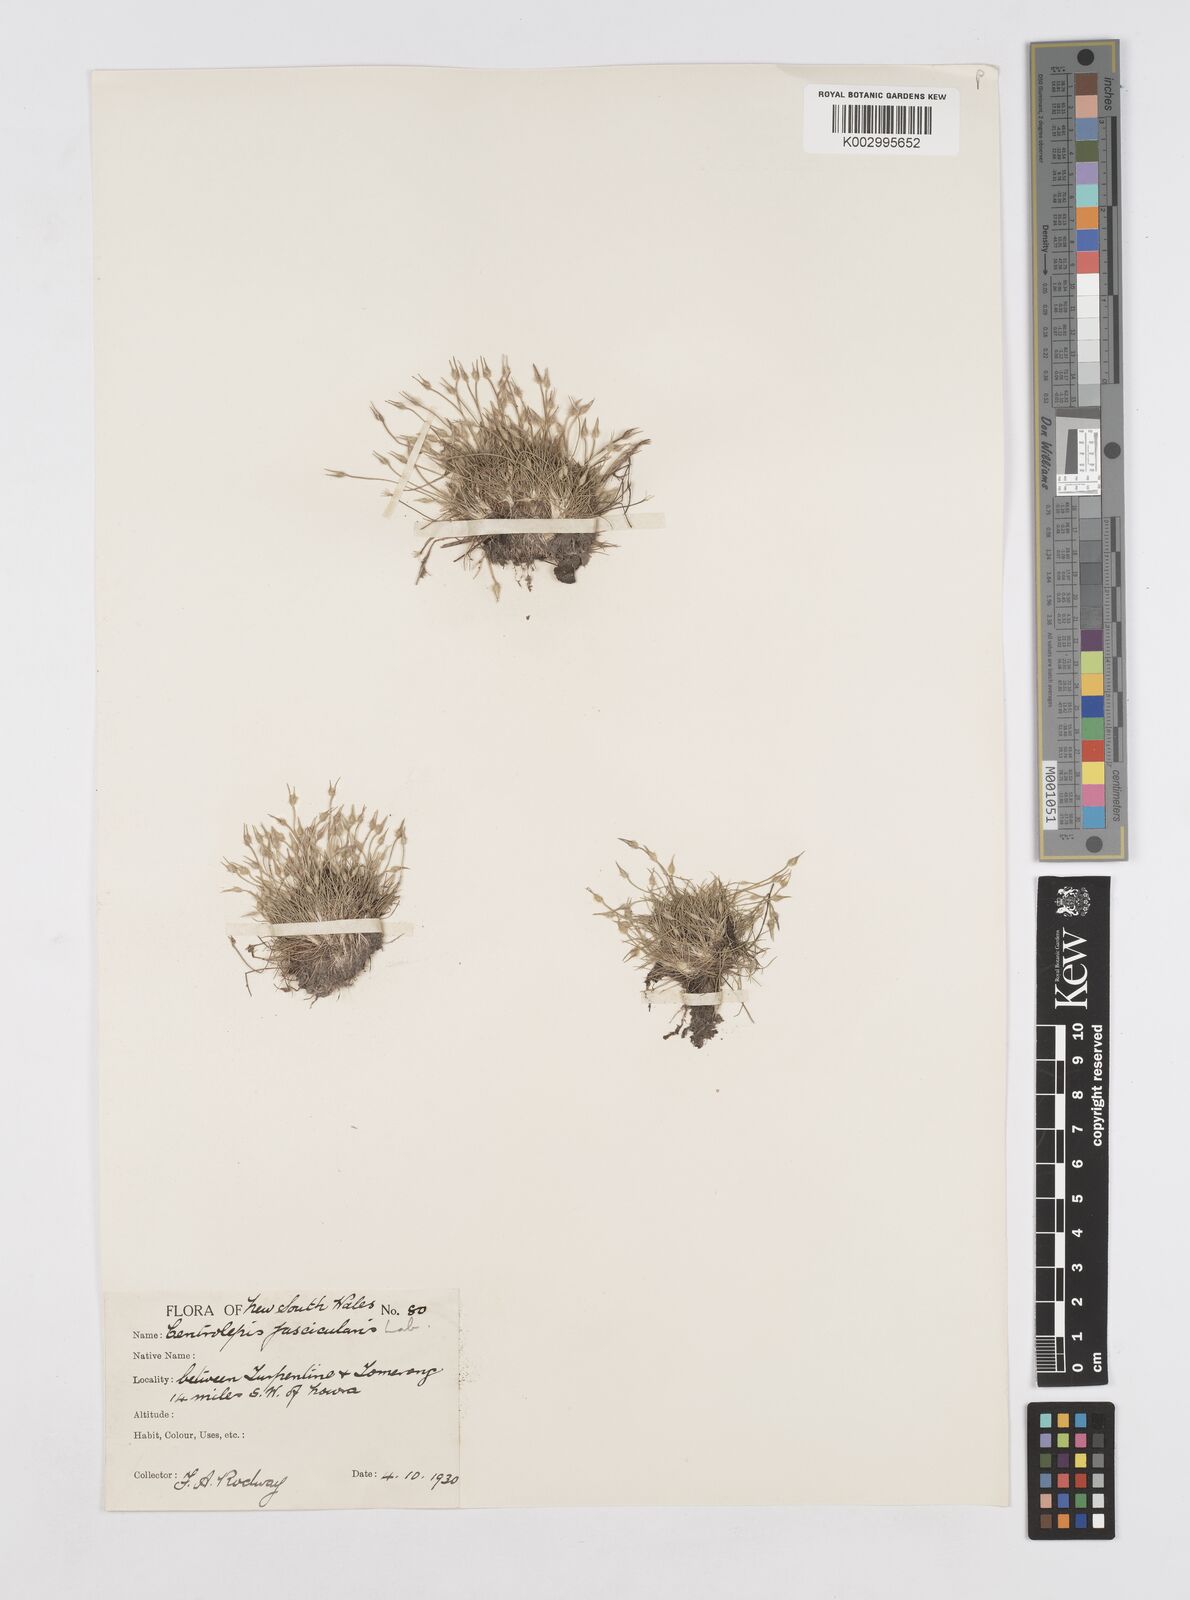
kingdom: Plantae
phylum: Tracheophyta
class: Liliopsida
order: Poales
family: Restionaceae
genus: Centrolepis
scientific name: Centrolepis fascicularis
